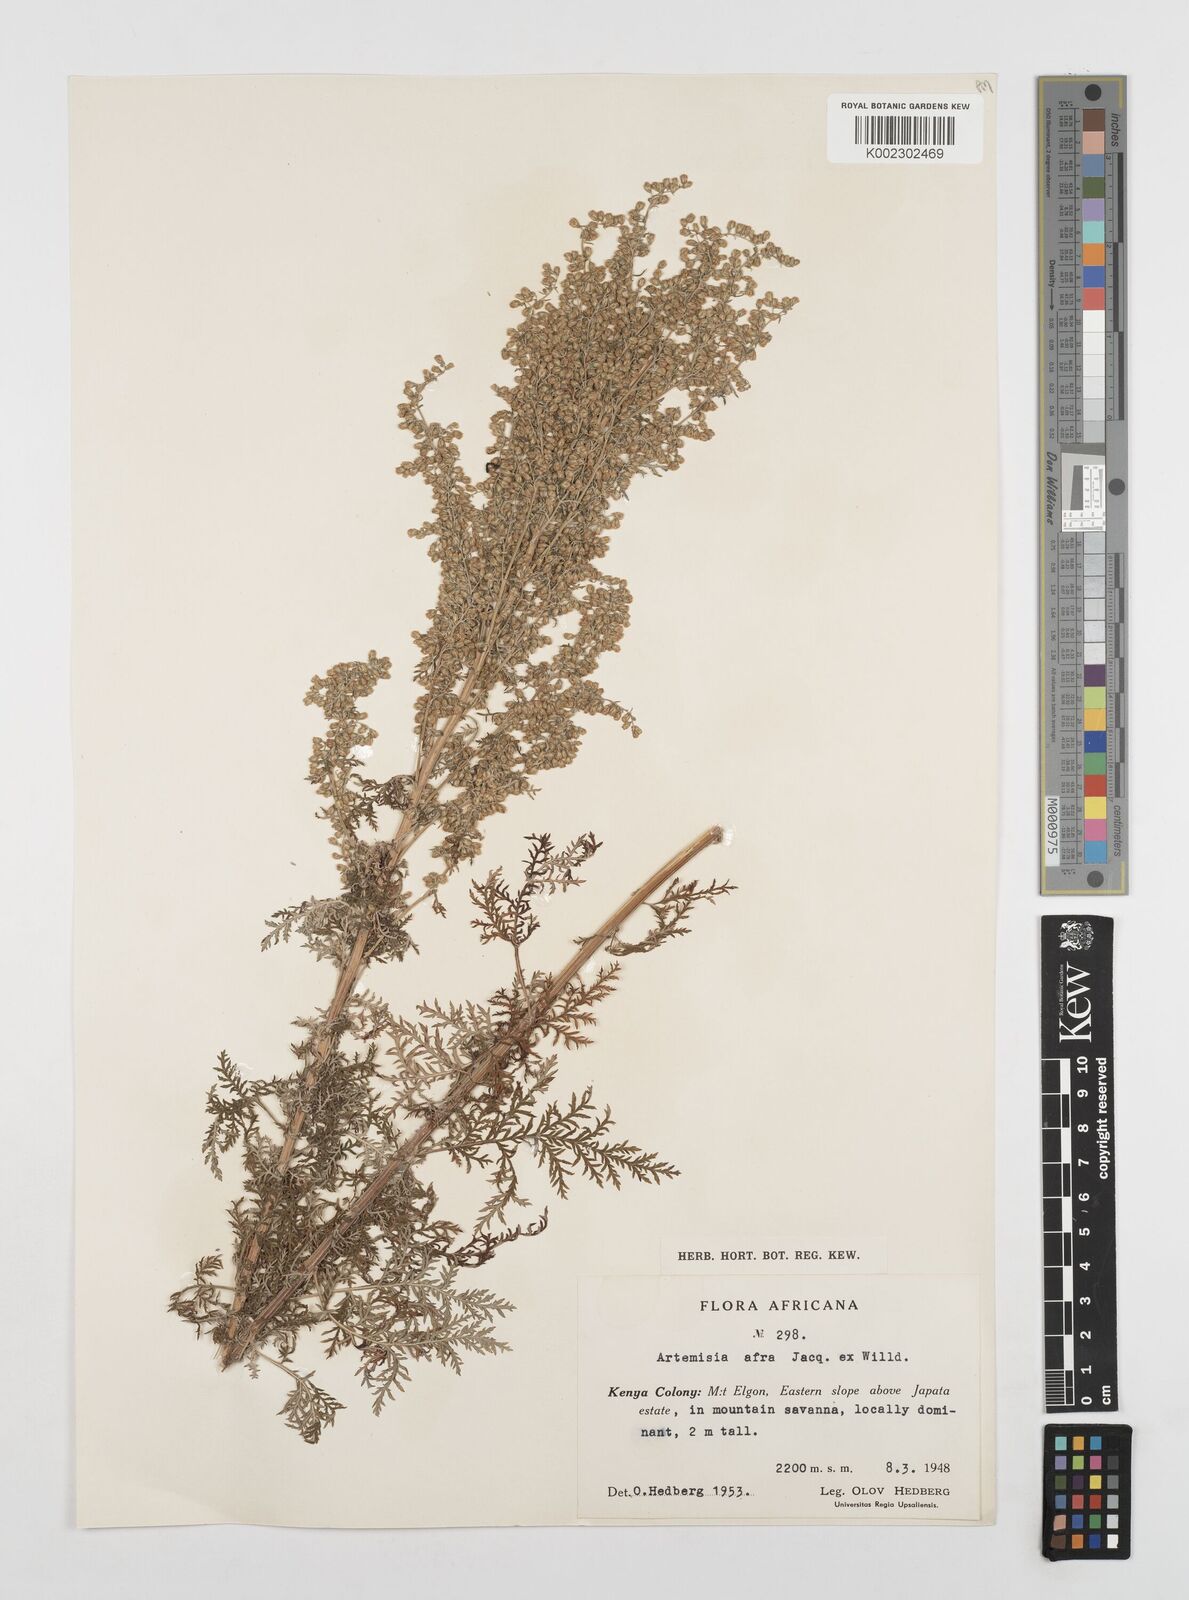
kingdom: Plantae
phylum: Tracheophyta
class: Magnoliopsida
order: Asterales
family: Asteraceae
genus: Artemisia
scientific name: Artemisia afra
